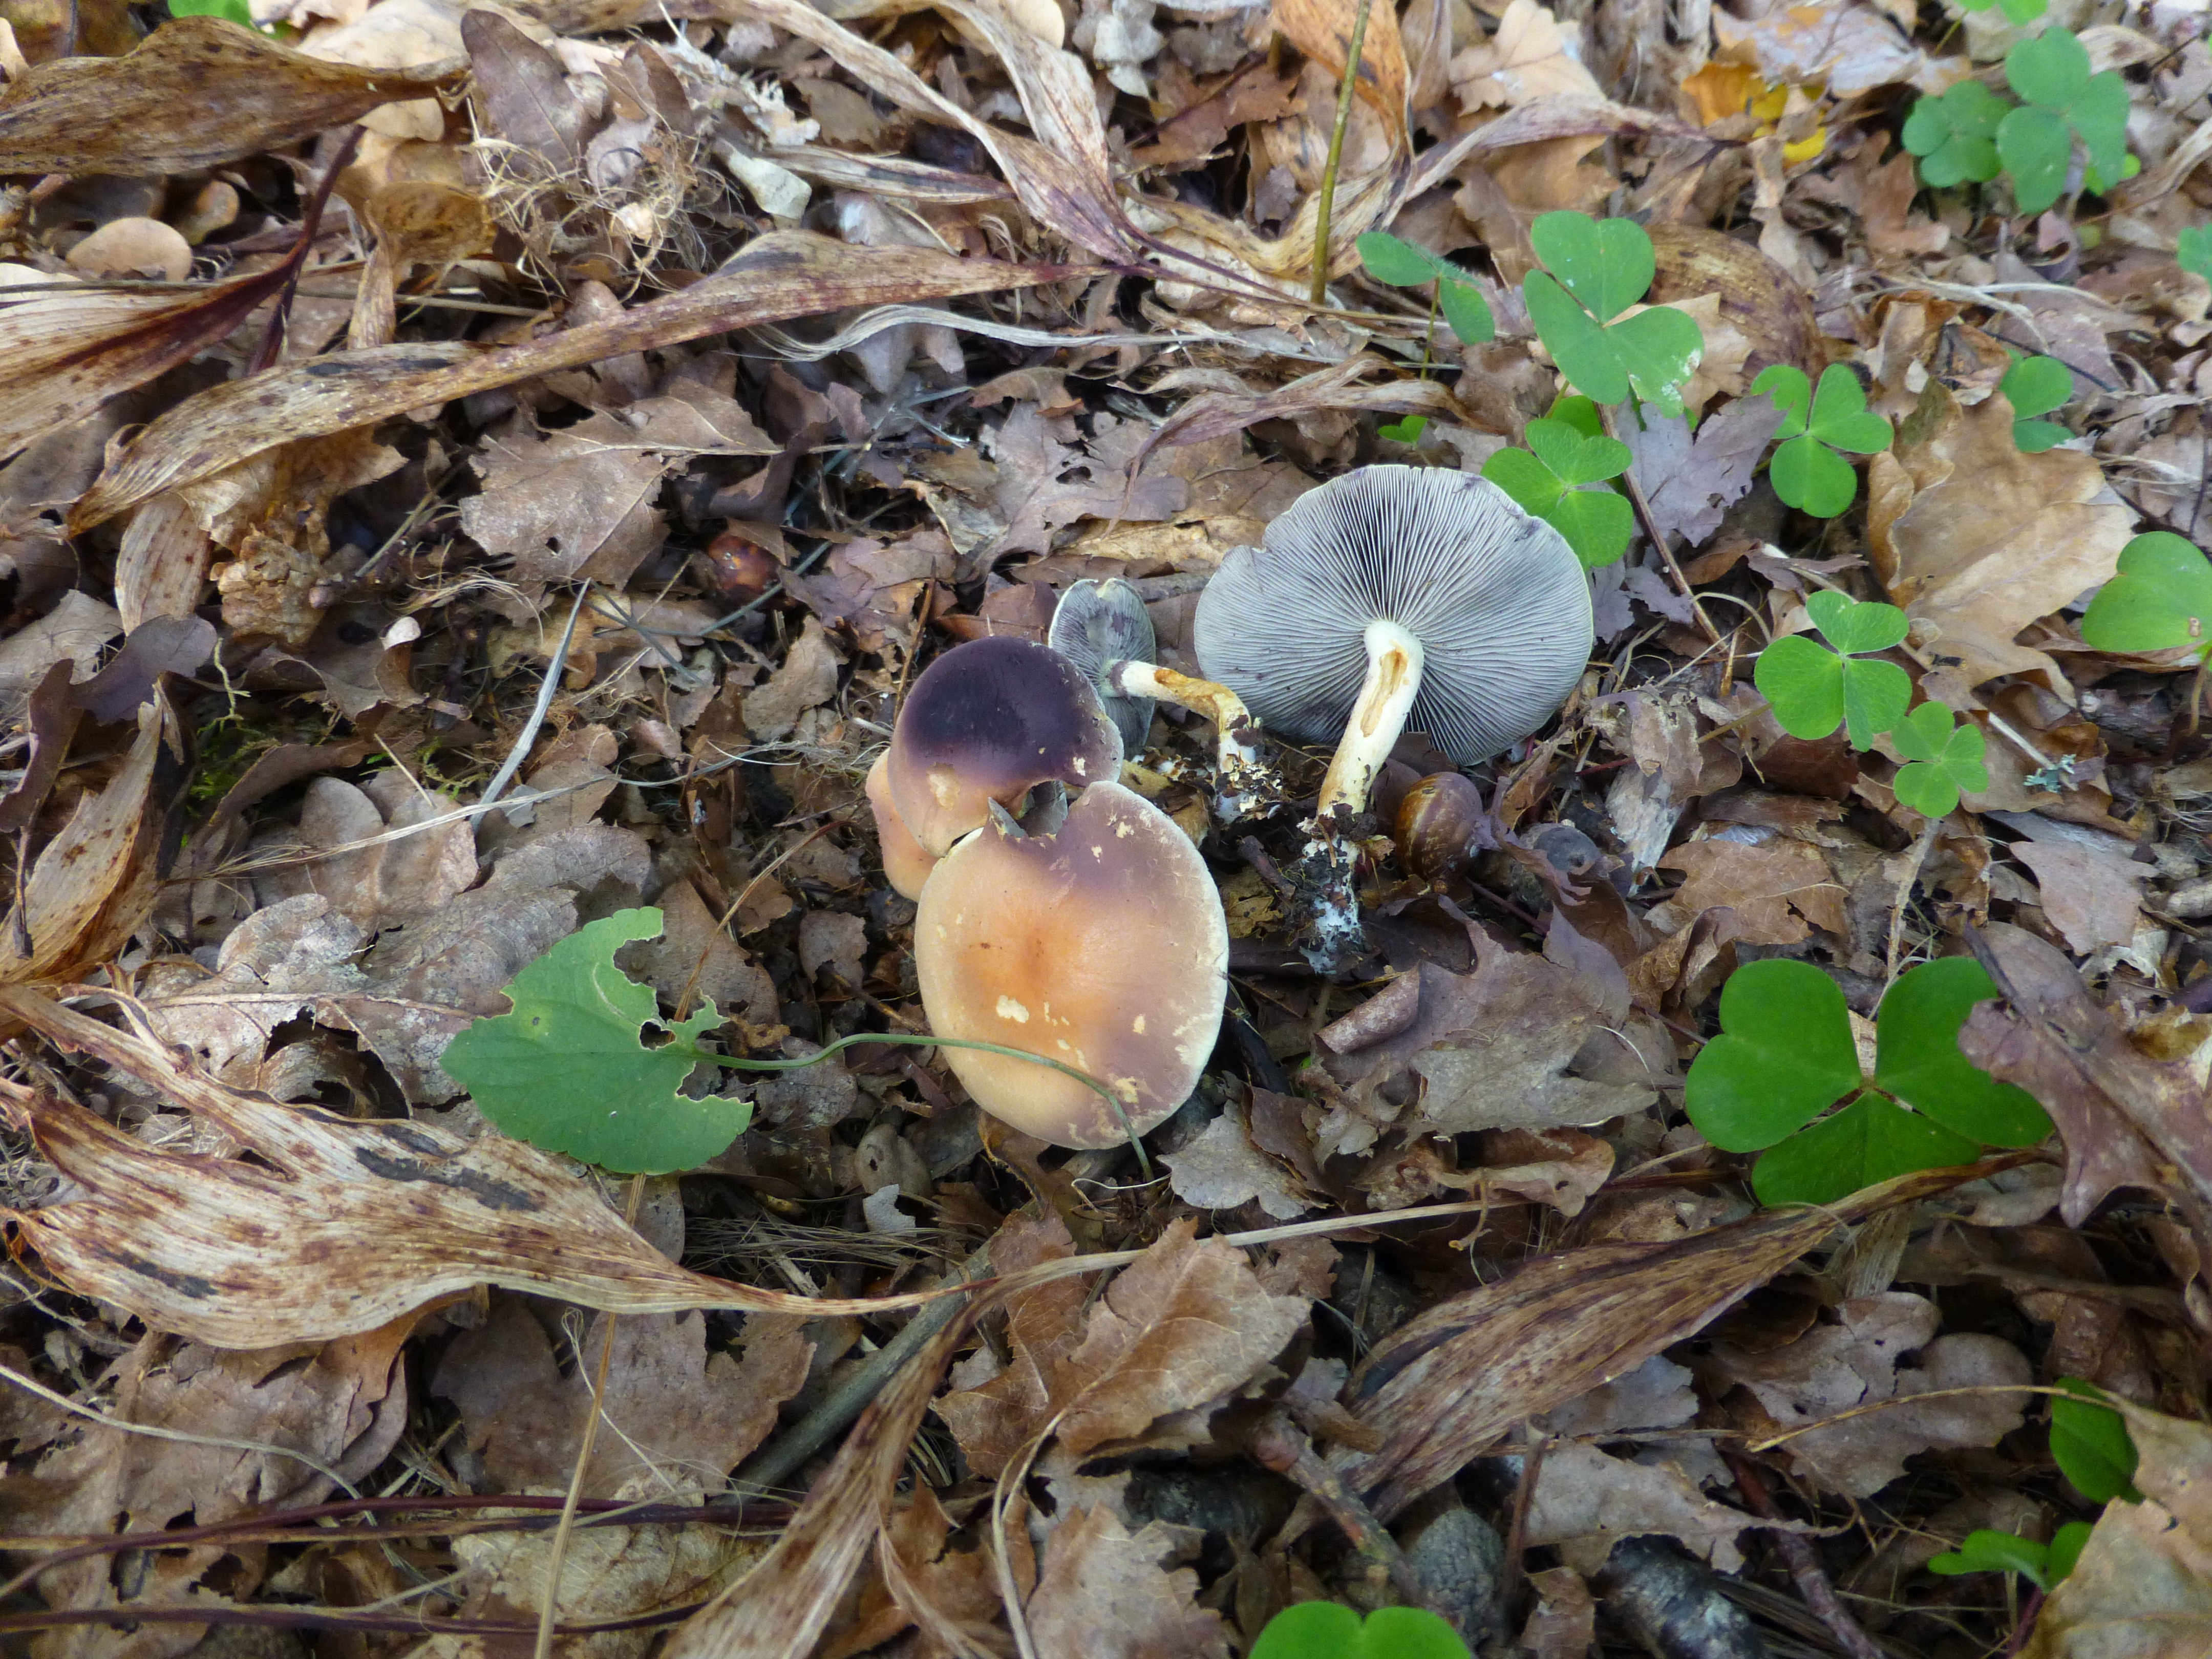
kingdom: Fungi
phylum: Basidiomycota
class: Agaricomycetes
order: Agaricales
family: Strophariaceae
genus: Hypholoma
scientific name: Hypholoma
